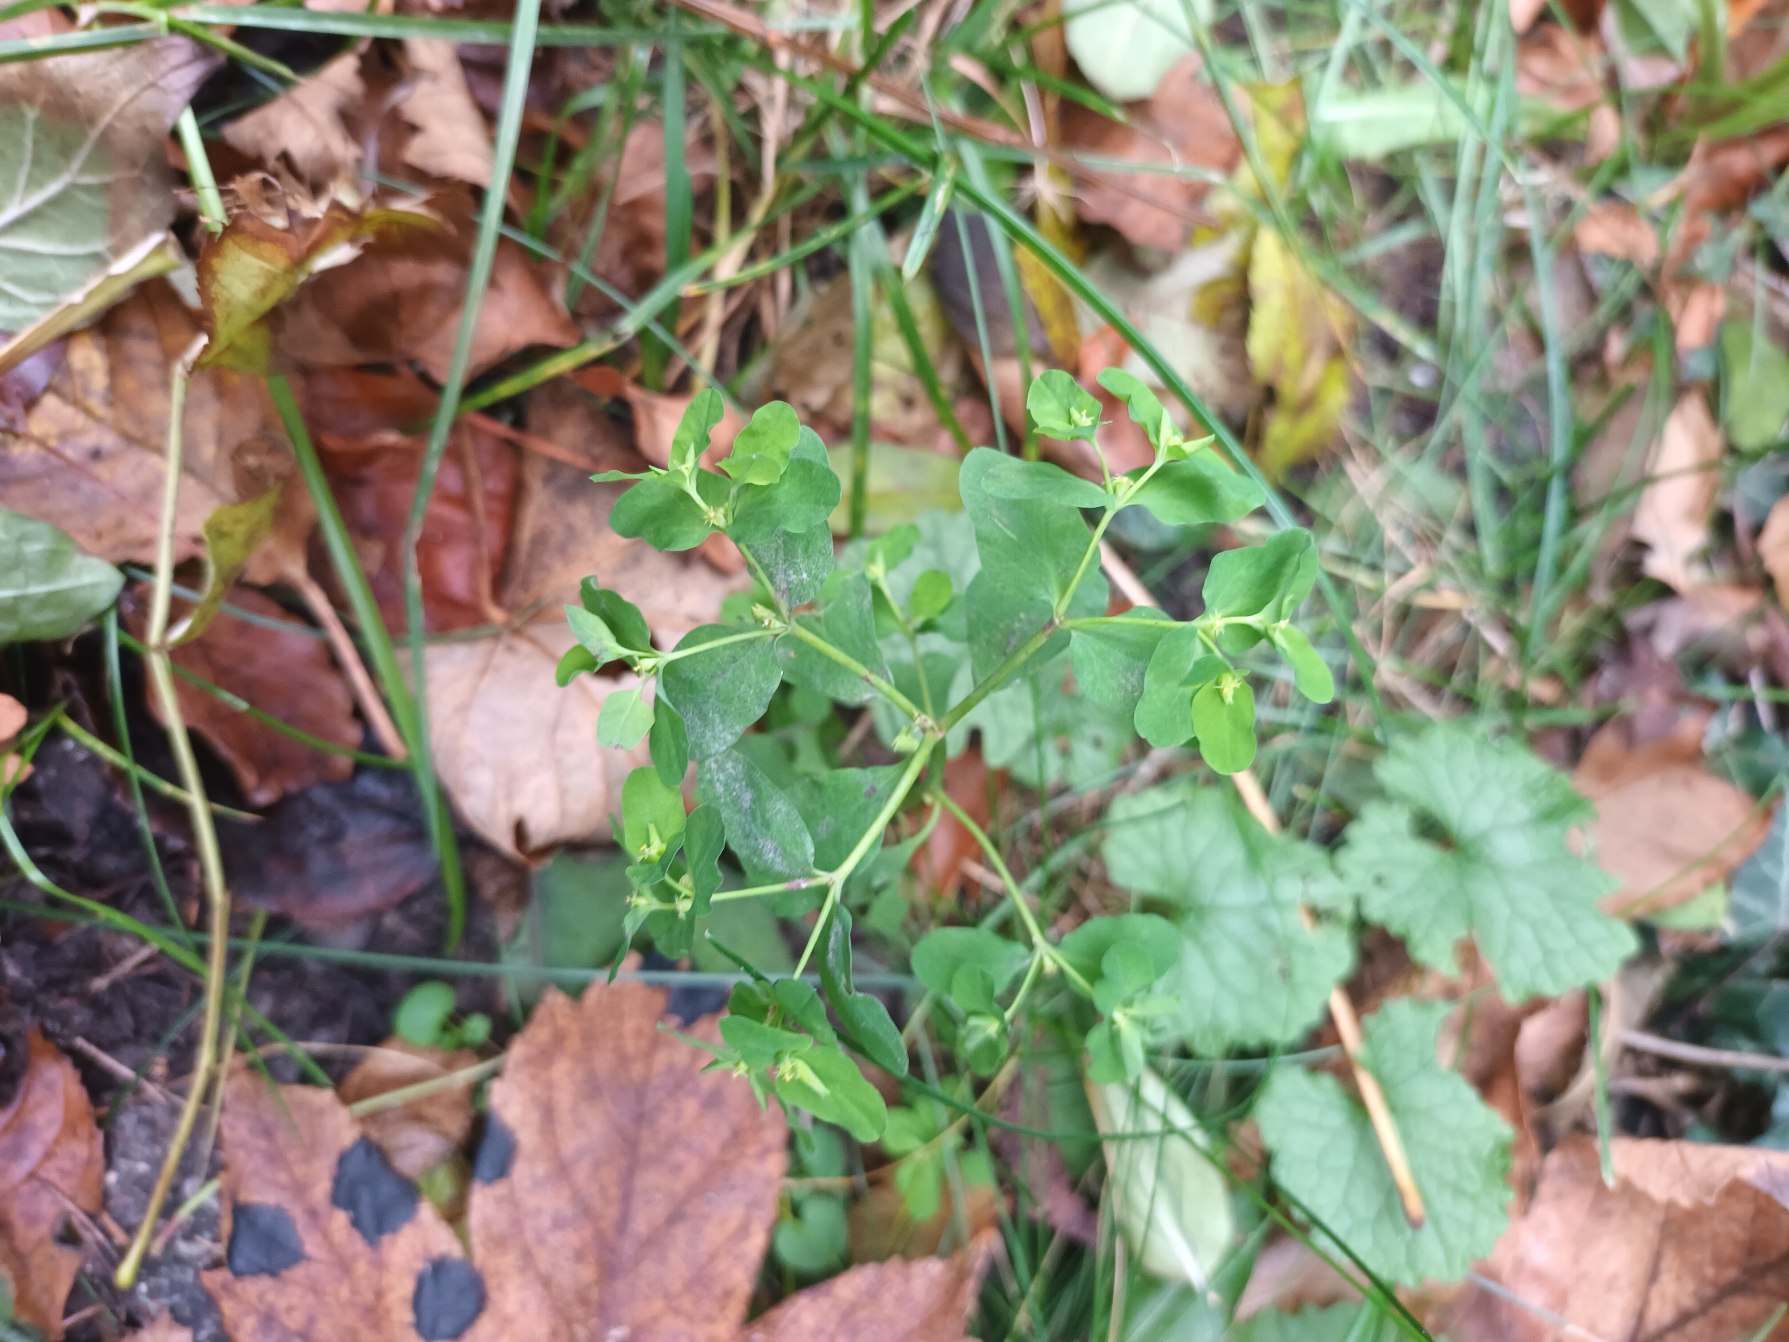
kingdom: Plantae
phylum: Tracheophyta
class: Magnoliopsida
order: Malpighiales
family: Euphorbiaceae
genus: Euphorbia
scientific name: Euphorbia peplus
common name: Gaffel-vortemælk
